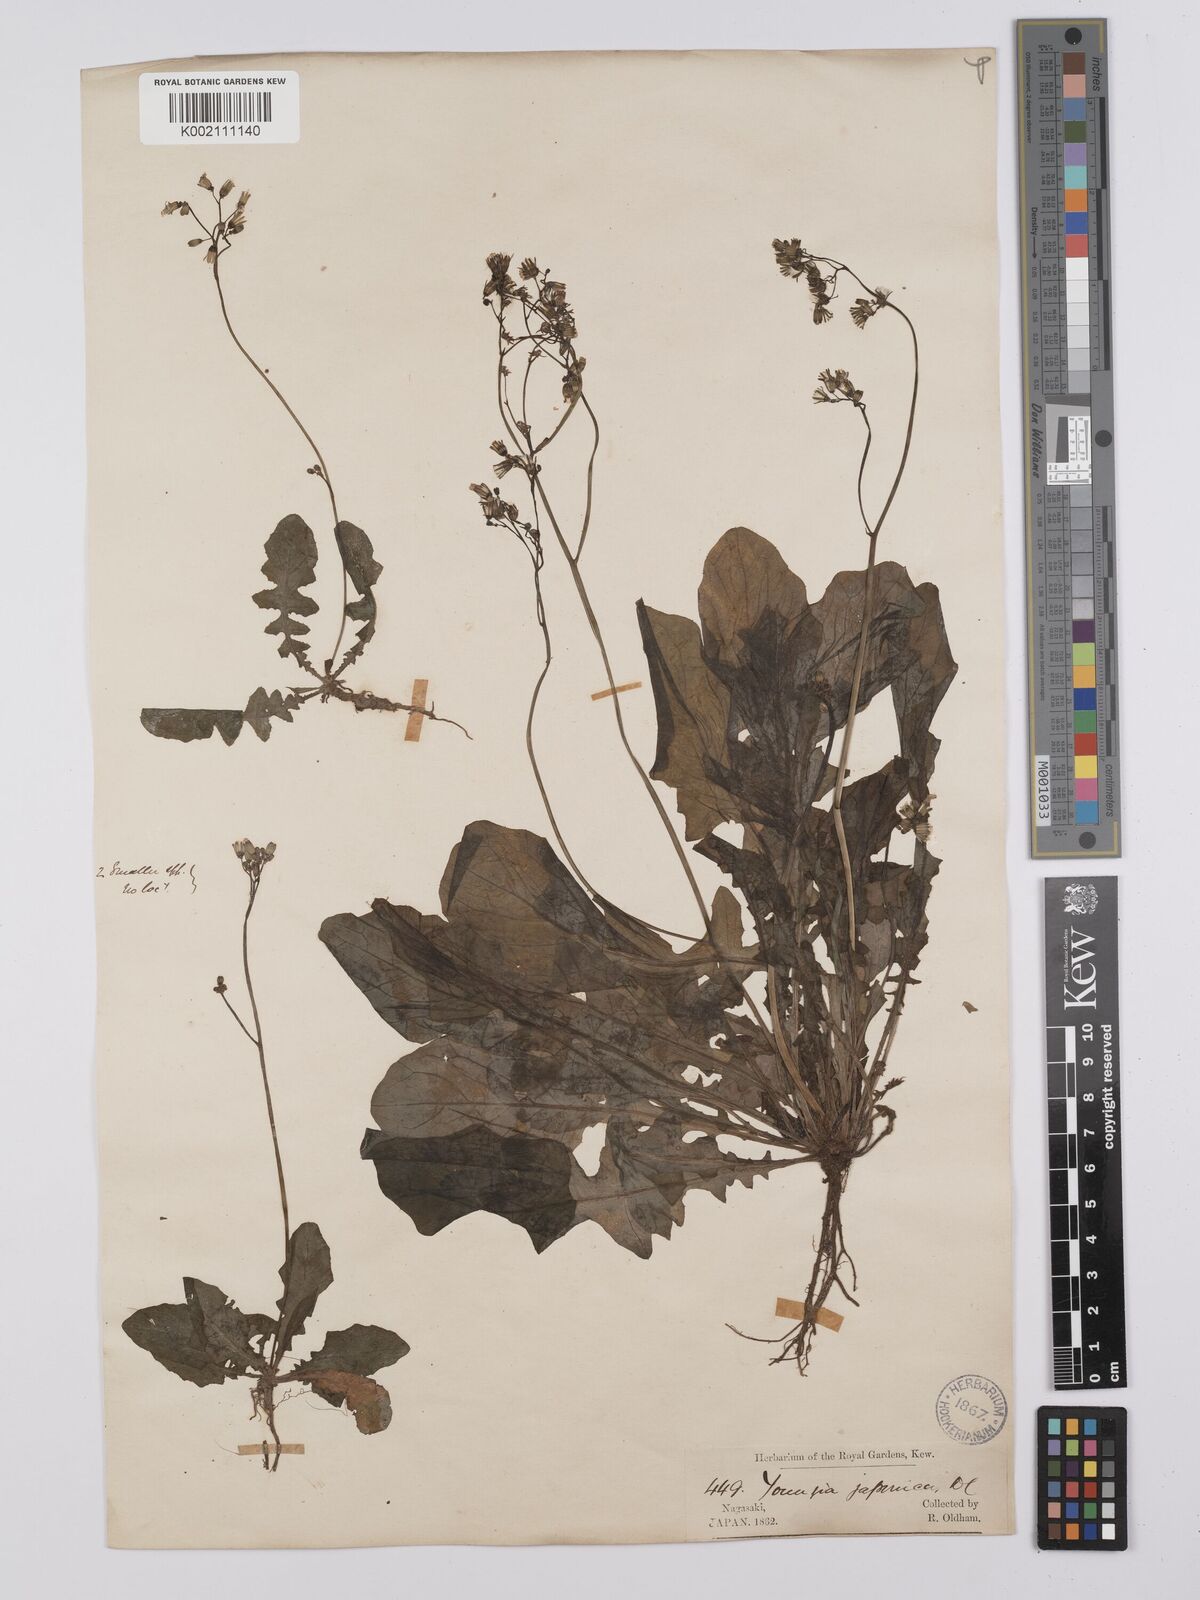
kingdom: Plantae
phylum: Tracheophyta
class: Magnoliopsida
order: Asterales
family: Asteraceae
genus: Youngia
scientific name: Youngia japonica
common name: Oriental false hawksbeard
